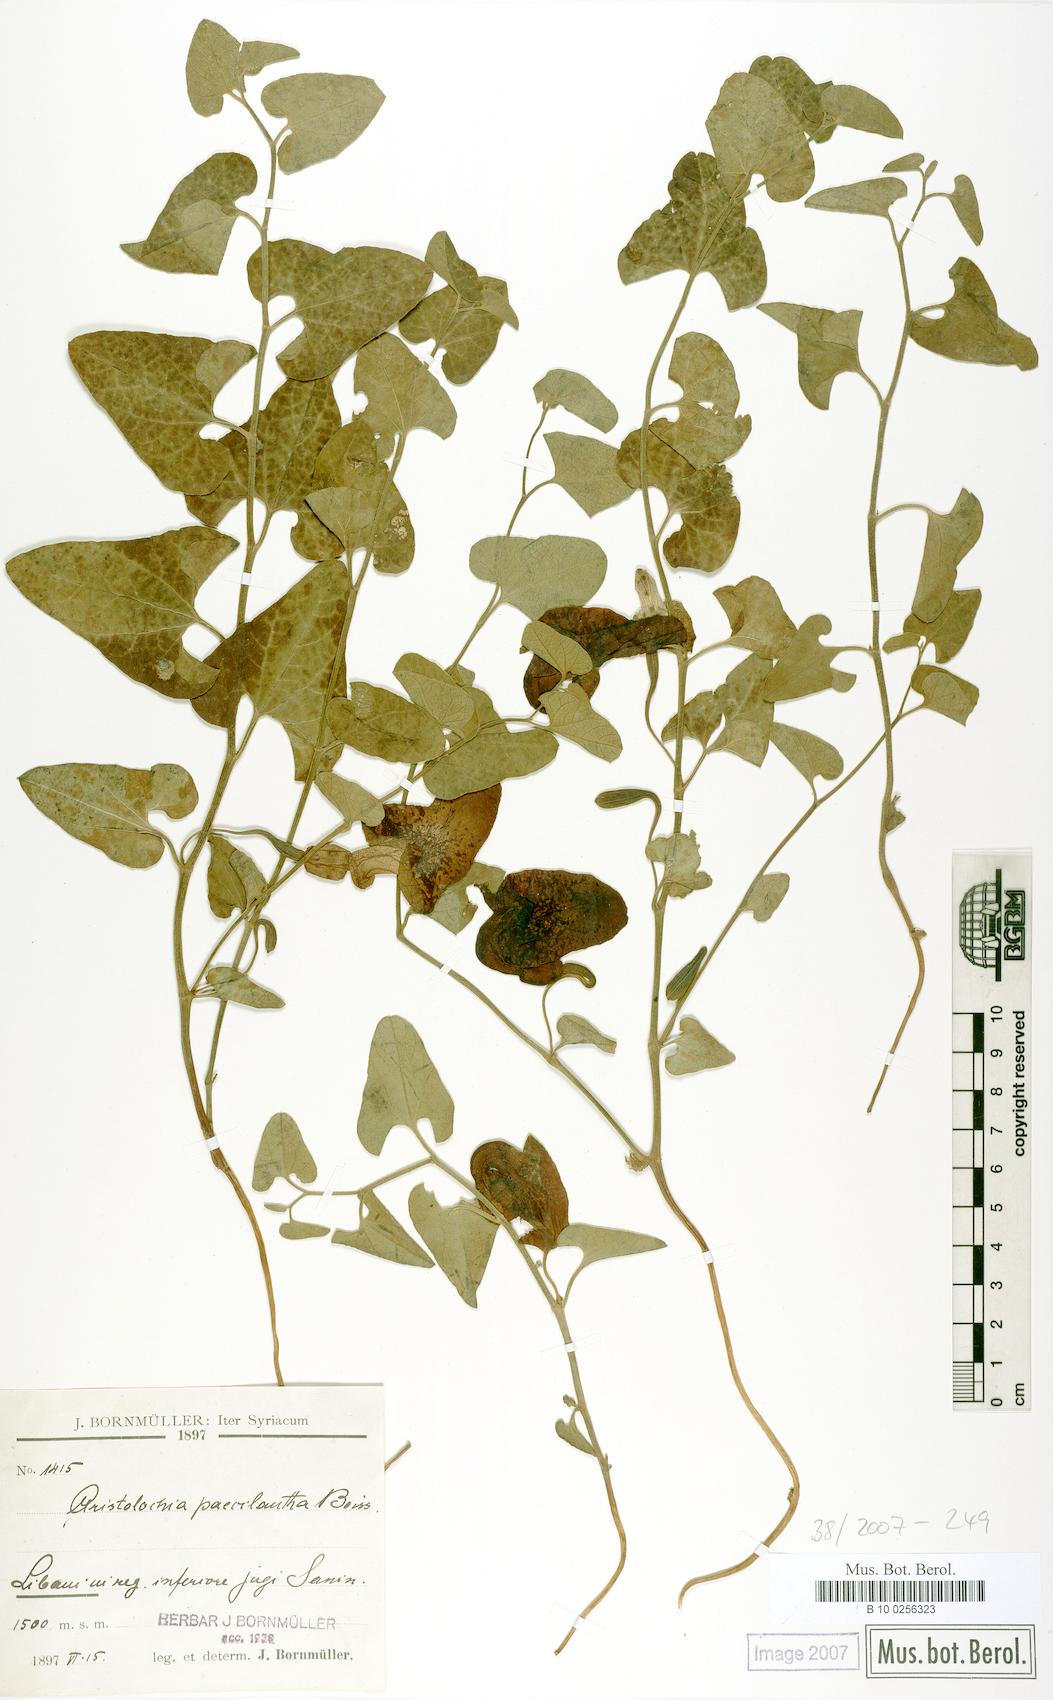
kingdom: Plantae
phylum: Tracheophyta
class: Magnoliopsida
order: Piperales
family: Aristolochiaceae
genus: Aristolochia
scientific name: Aristolochia paecilantha
